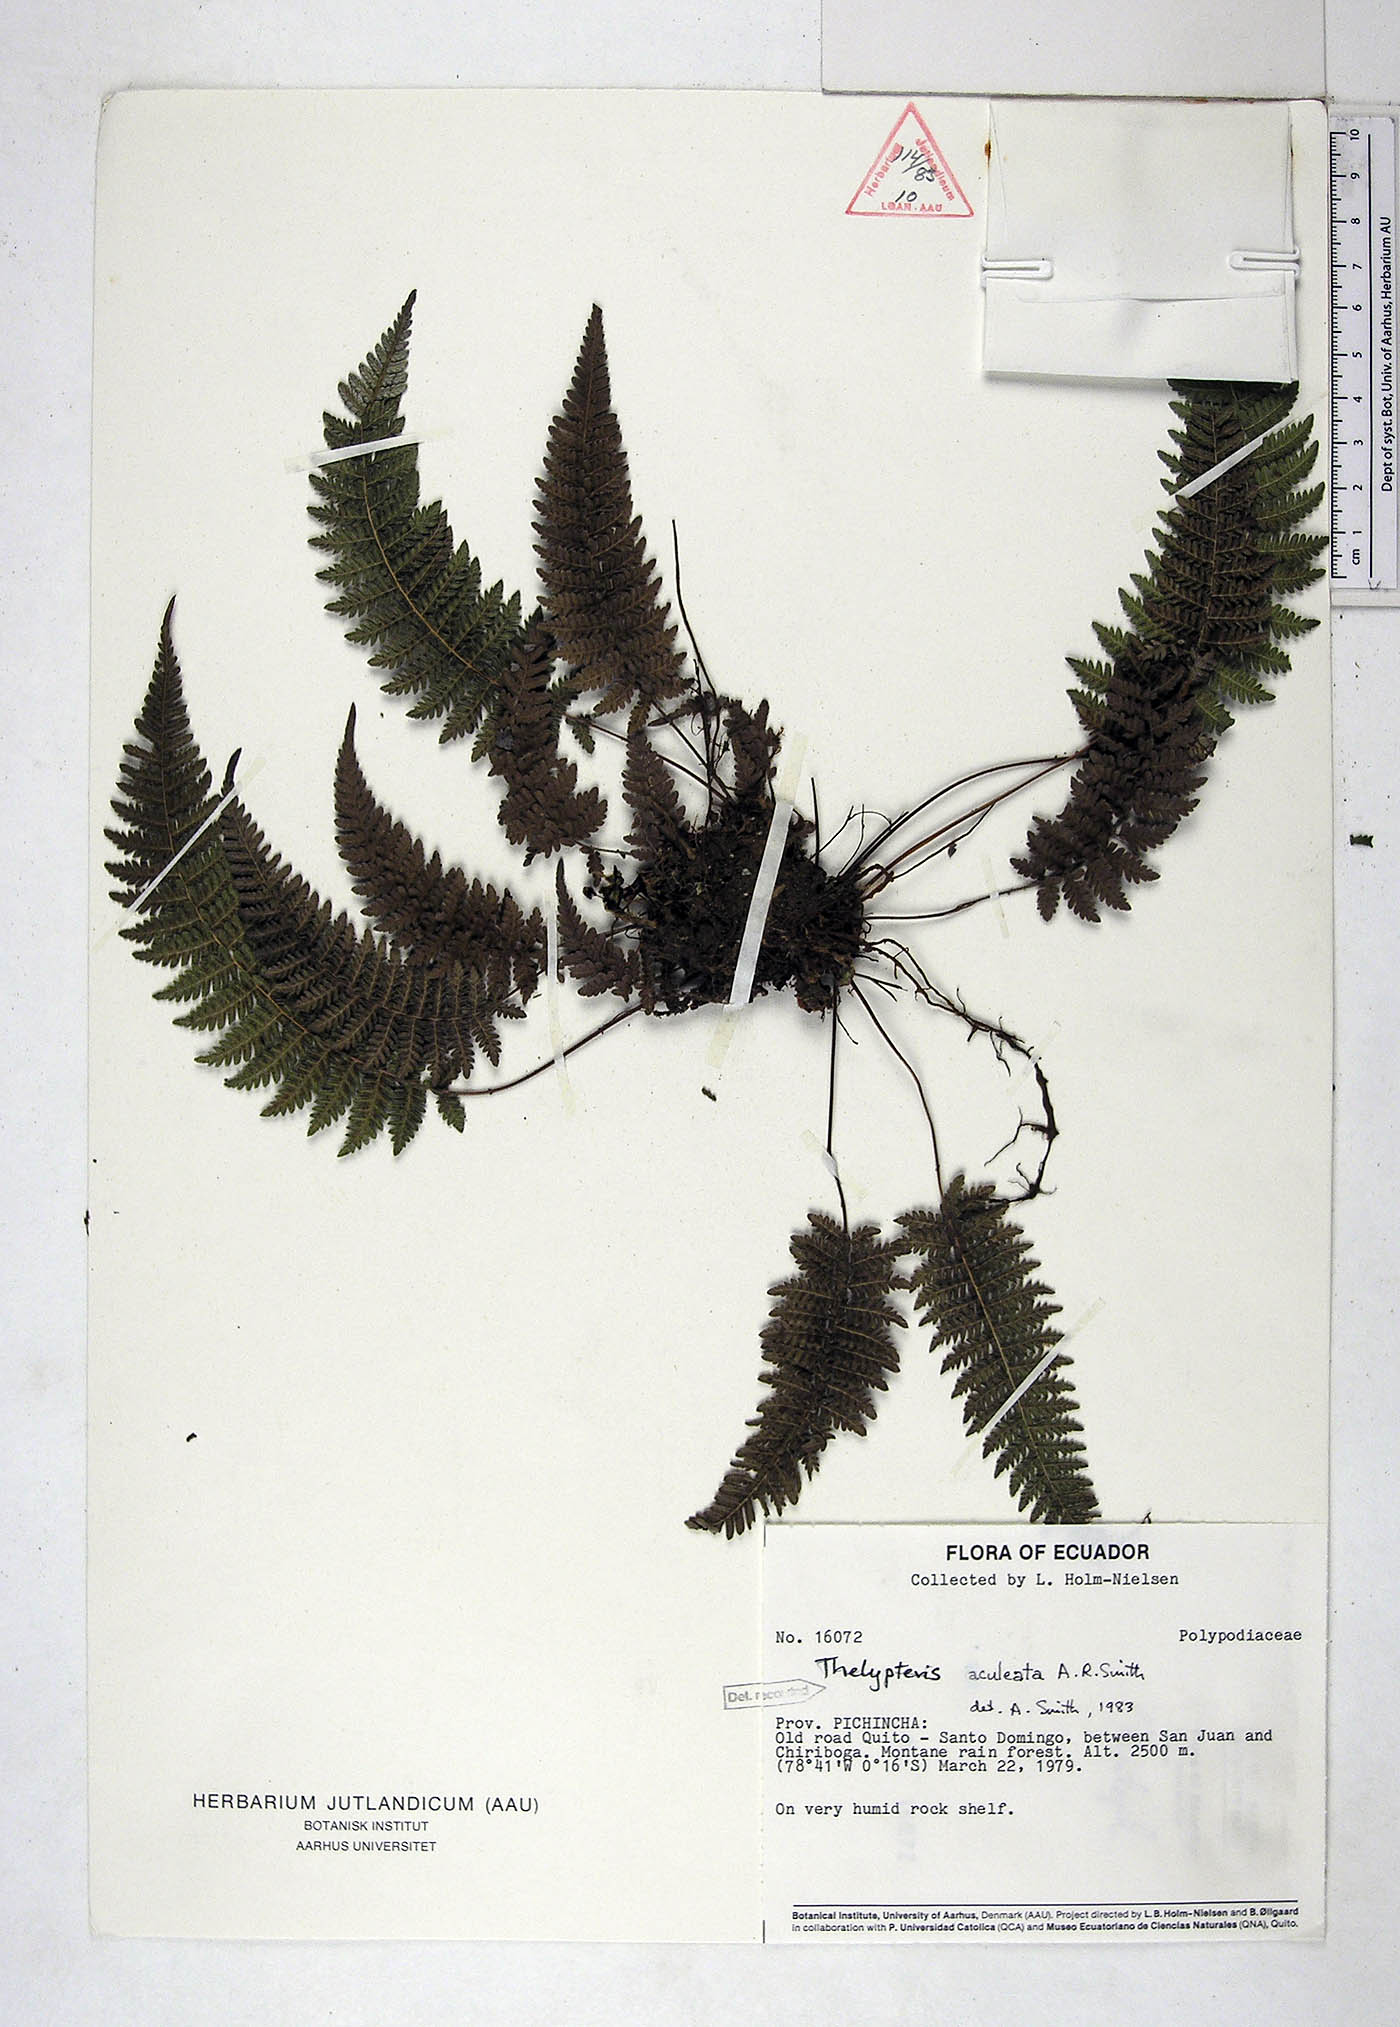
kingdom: Plantae
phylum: Tracheophyta
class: Polypodiopsida
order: Polypodiales
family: Thelypteridaceae
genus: Amauropelta
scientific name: Amauropelta aculeata
